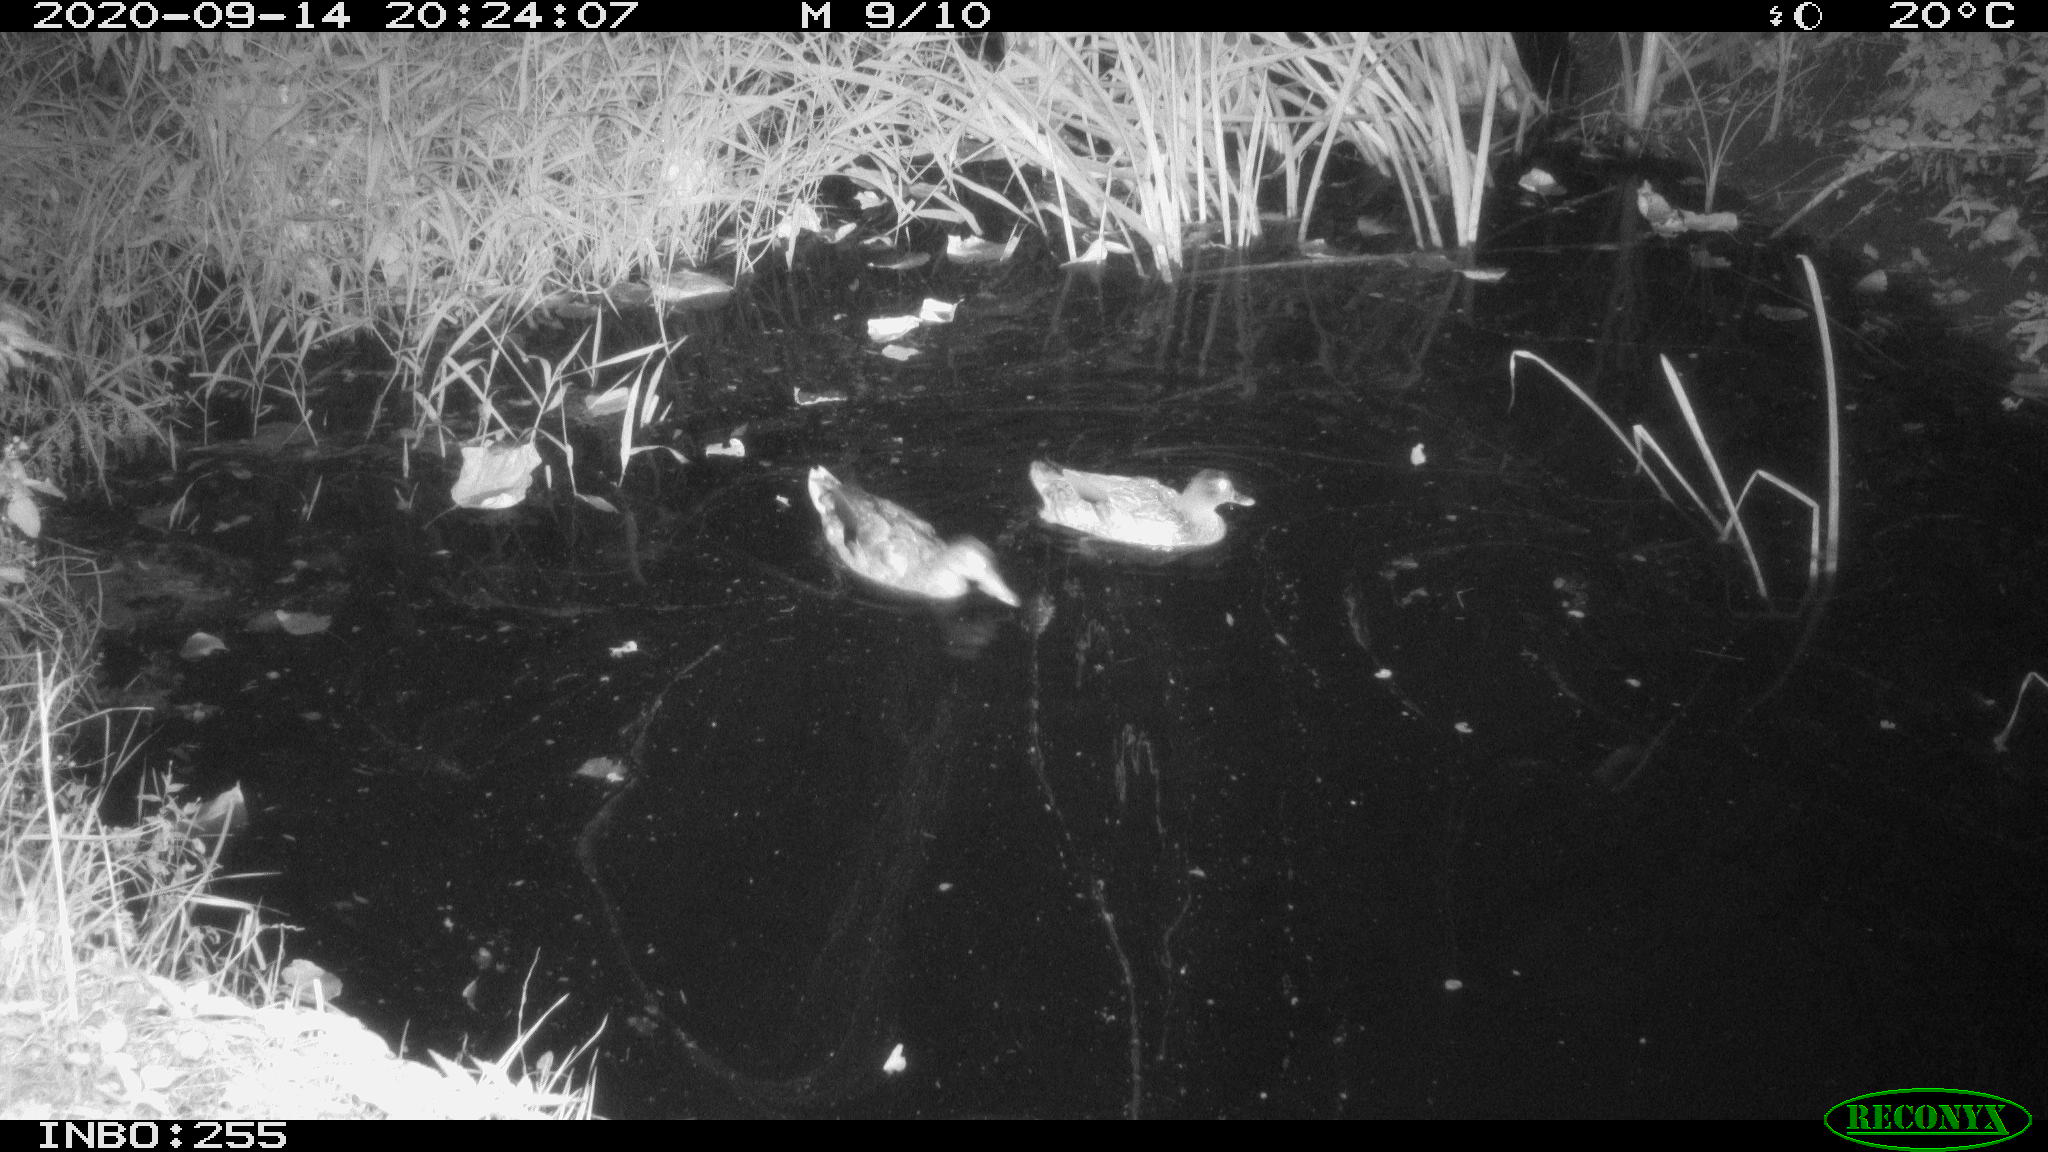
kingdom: Animalia
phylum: Chordata
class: Aves
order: Anseriformes
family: Anatidae
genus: Anas
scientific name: Anas platyrhynchos
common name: Mallard
